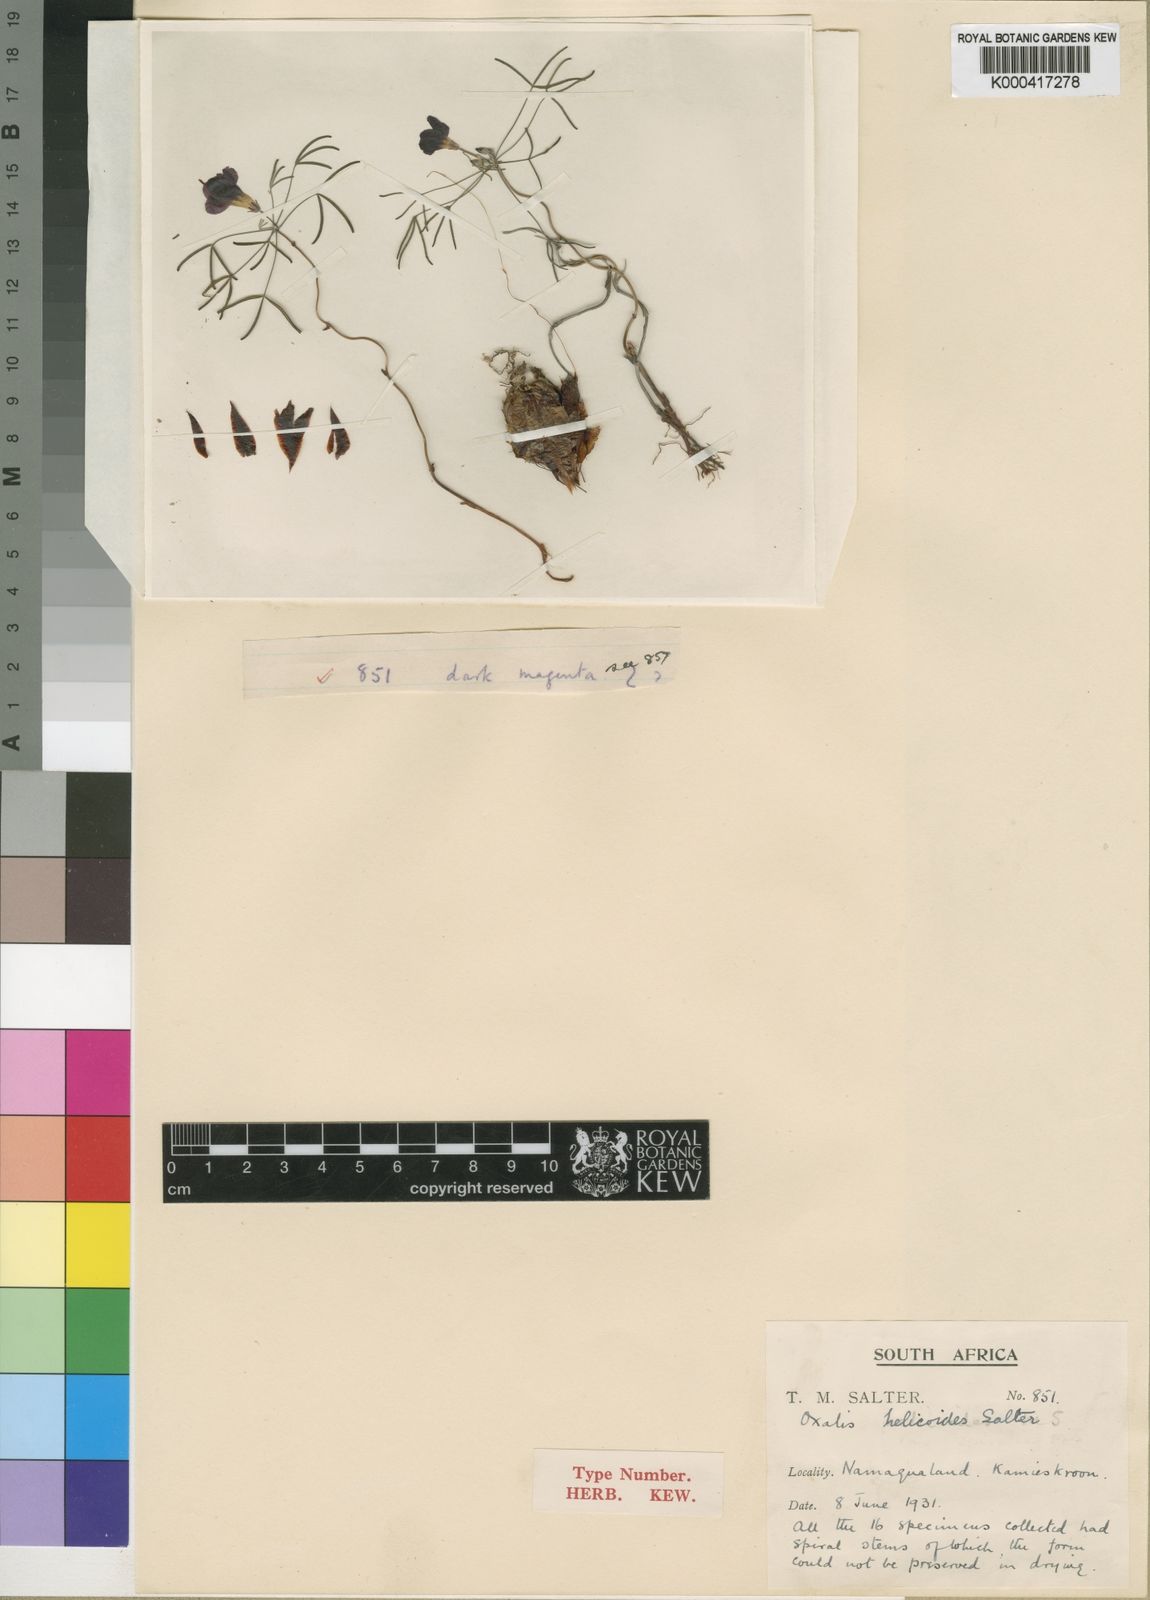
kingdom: Plantae
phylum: Tracheophyta
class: Magnoliopsida
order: Oxalidales
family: Oxalidaceae
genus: Oxalis
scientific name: Oxalis helicoides
